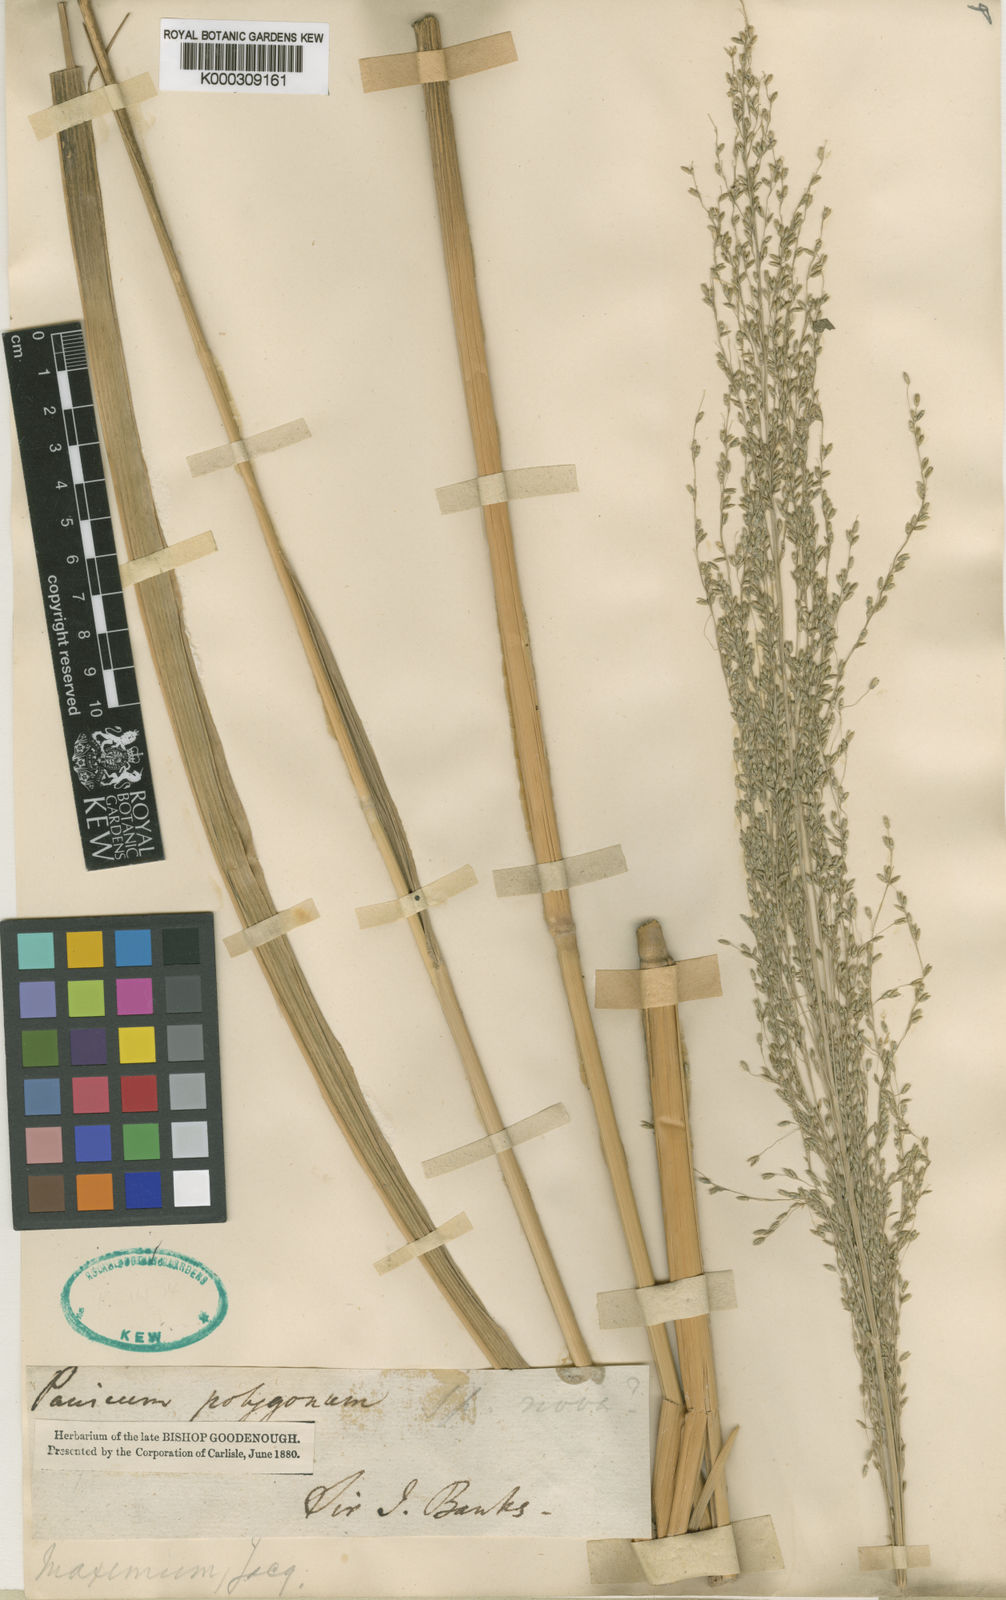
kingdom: Plantae
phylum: Tracheophyta
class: Liliopsida
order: Poales
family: Poaceae
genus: Megathyrsus
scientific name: Megathyrsus maximus
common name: Guineagrass
